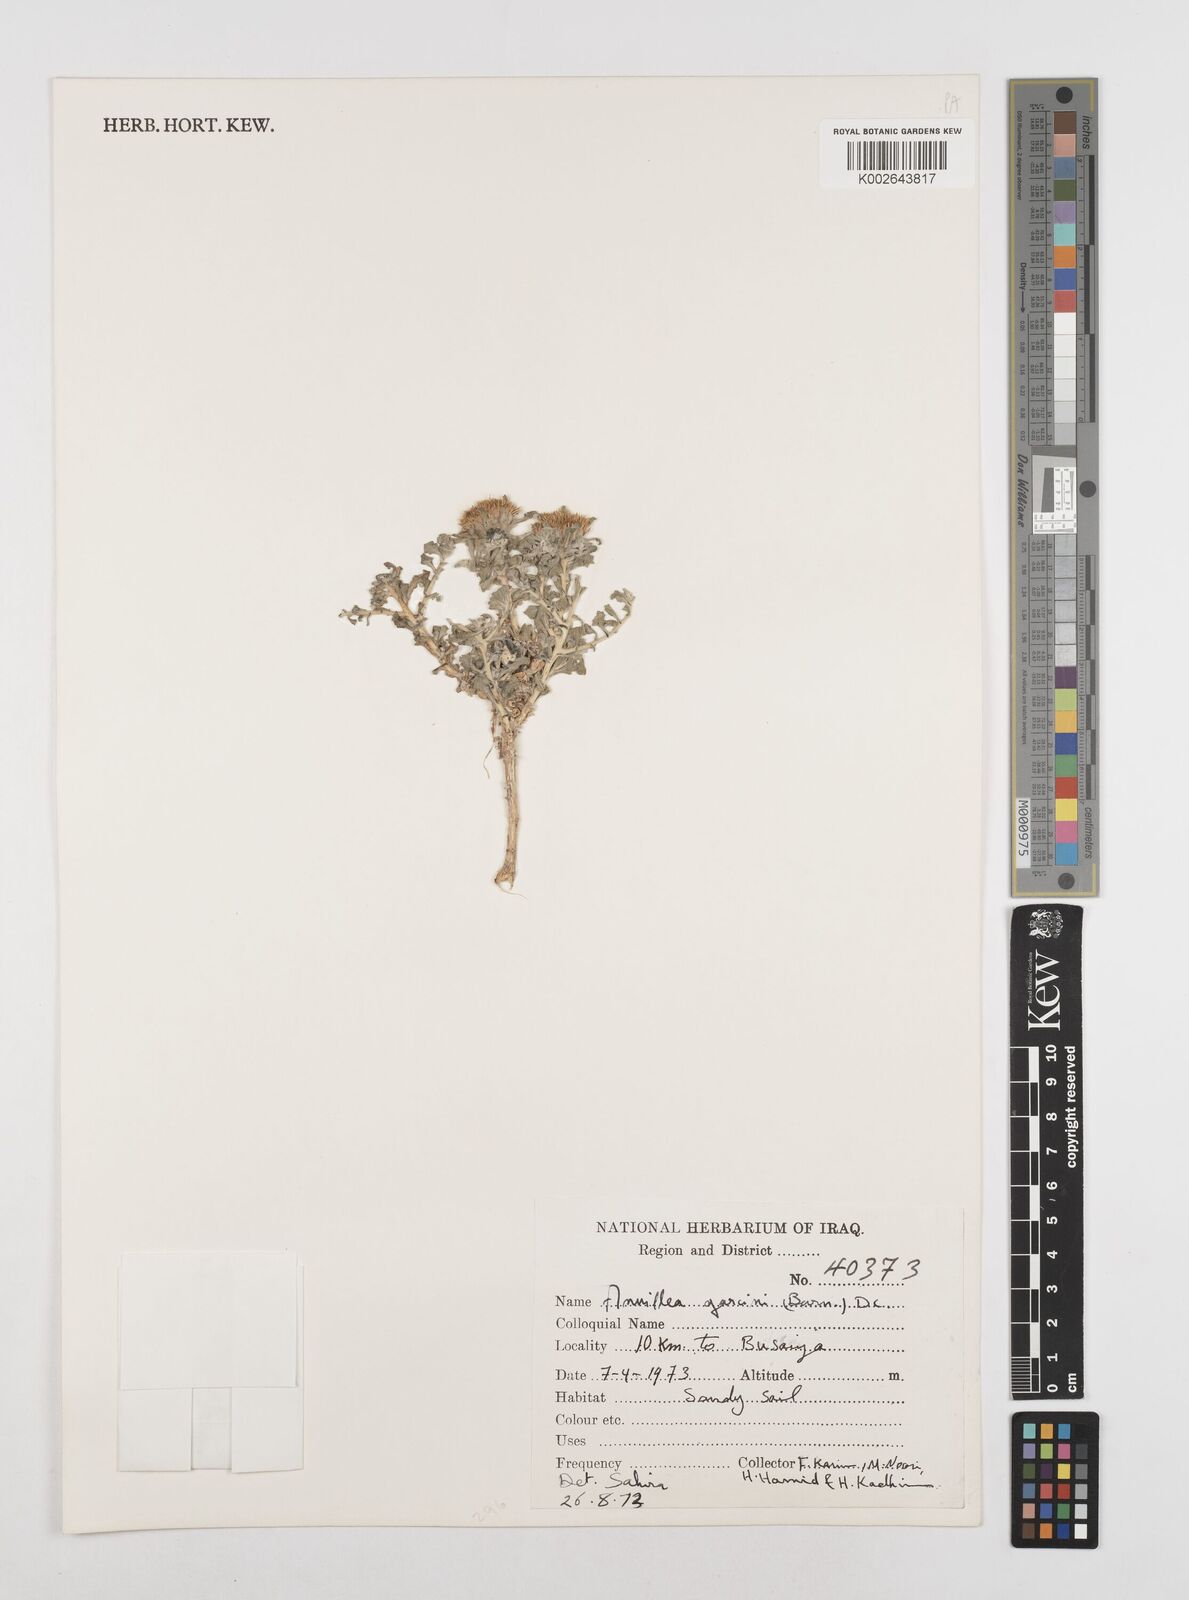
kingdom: Plantae
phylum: Tracheophyta
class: Magnoliopsida
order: Asterales
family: Asteraceae
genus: Anvillea
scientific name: Anvillea garcinii
